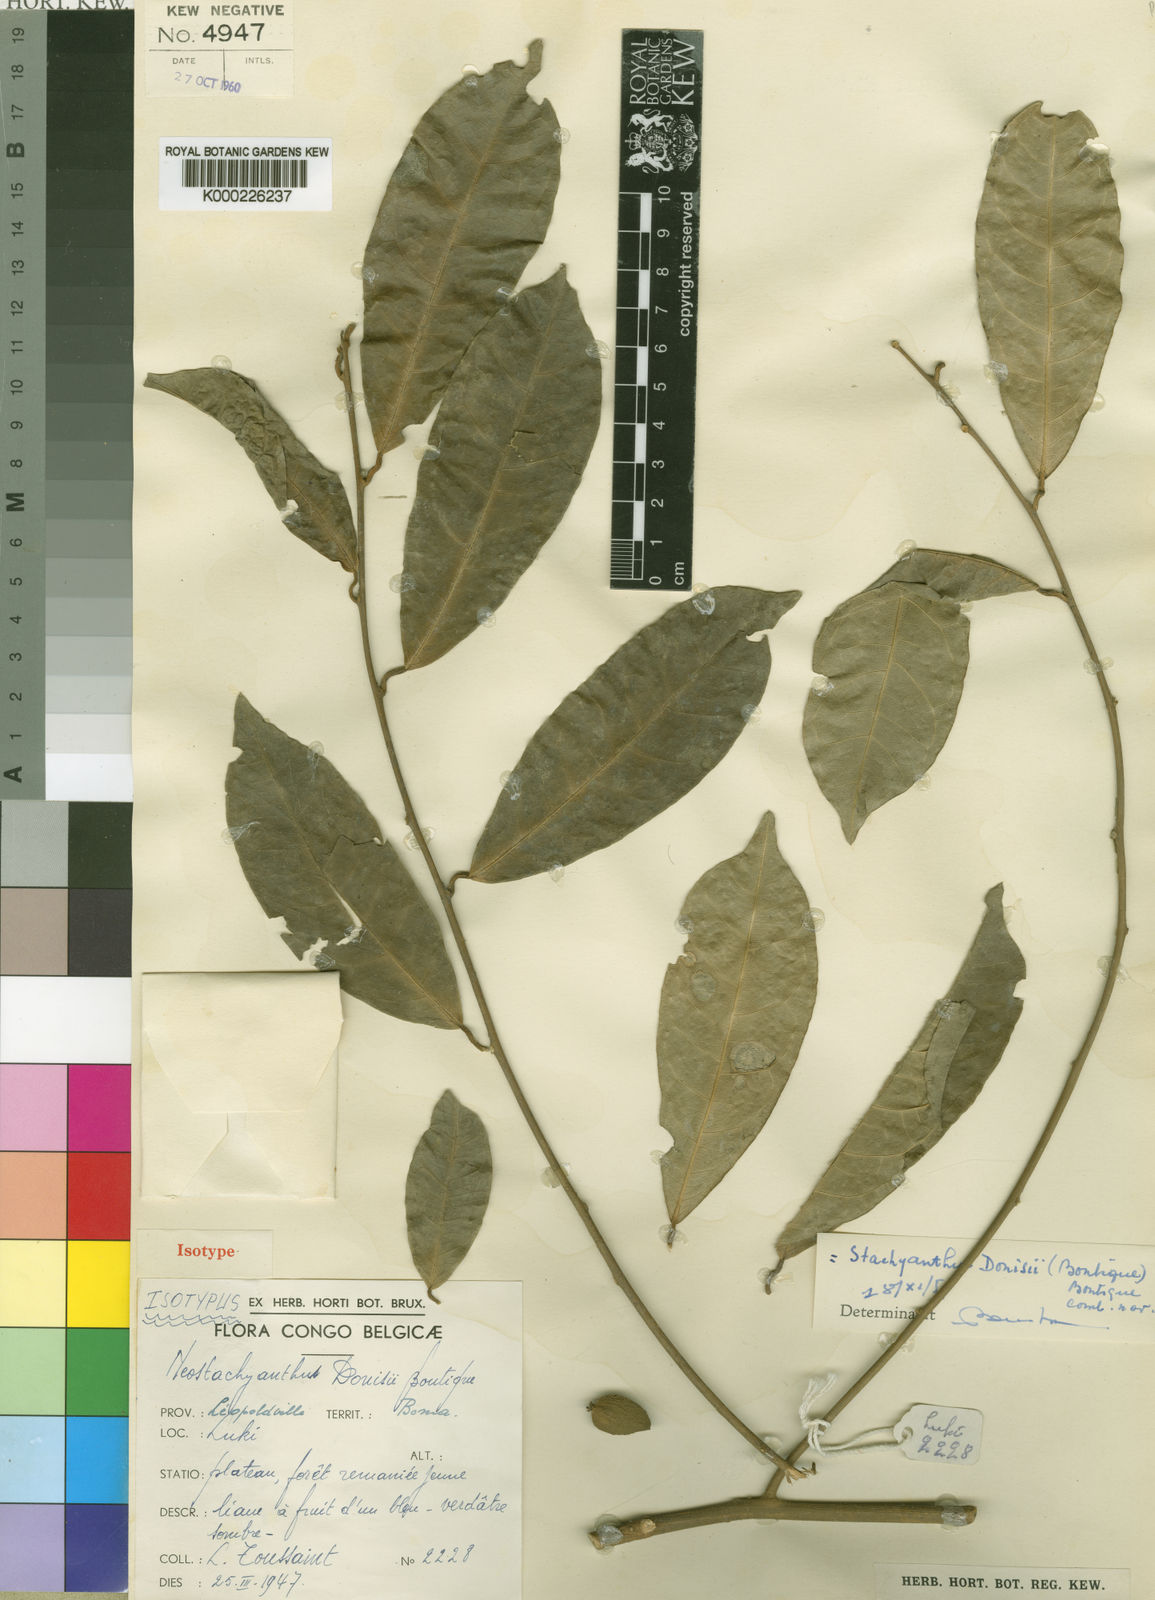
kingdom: Plantae
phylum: Tracheophyta
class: Magnoliopsida
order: Icacinales
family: Icacinaceae
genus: Stachyanthus
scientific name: Stachyanthus donisii
